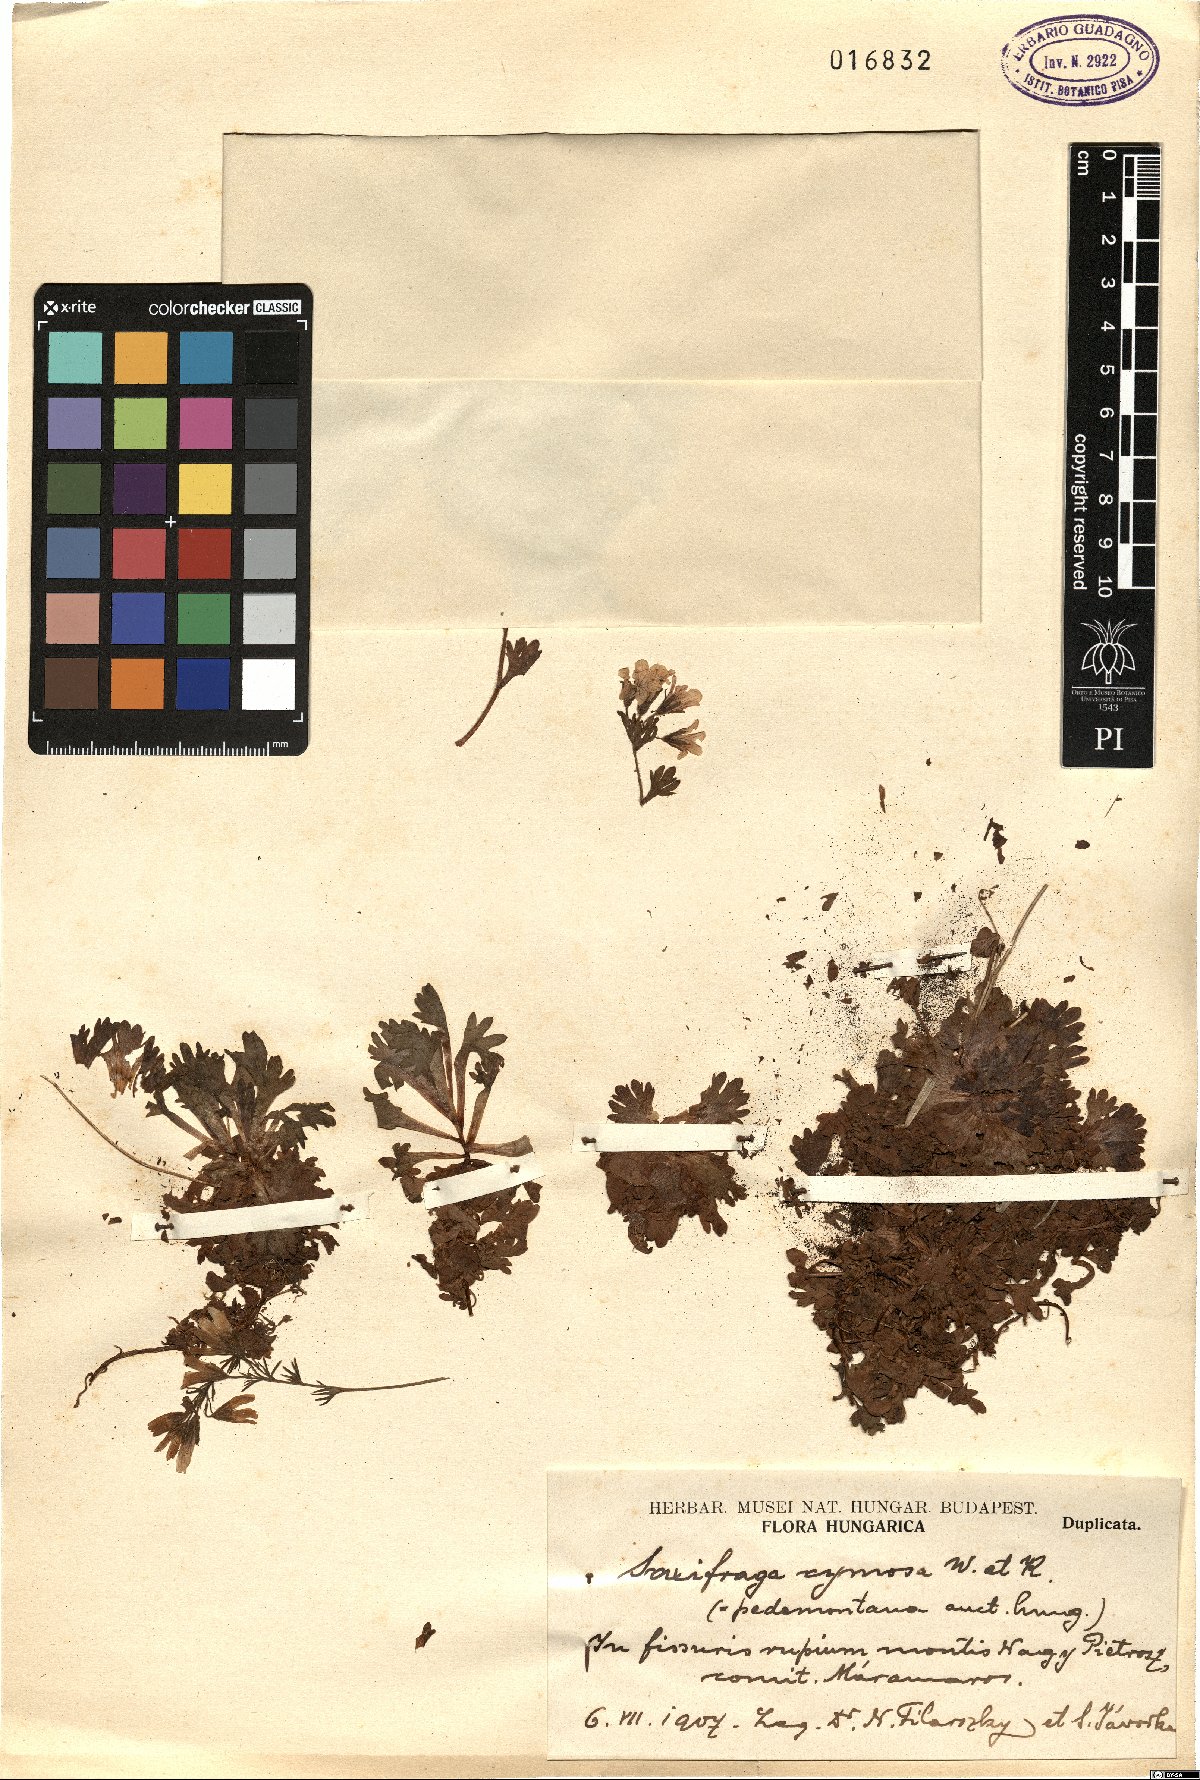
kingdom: Plantae
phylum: Tracheophyta
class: Magnoliopsida
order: Saxifragales
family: Saxifragaceae
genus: Saxifraga
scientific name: Saxifraga pedemontana
